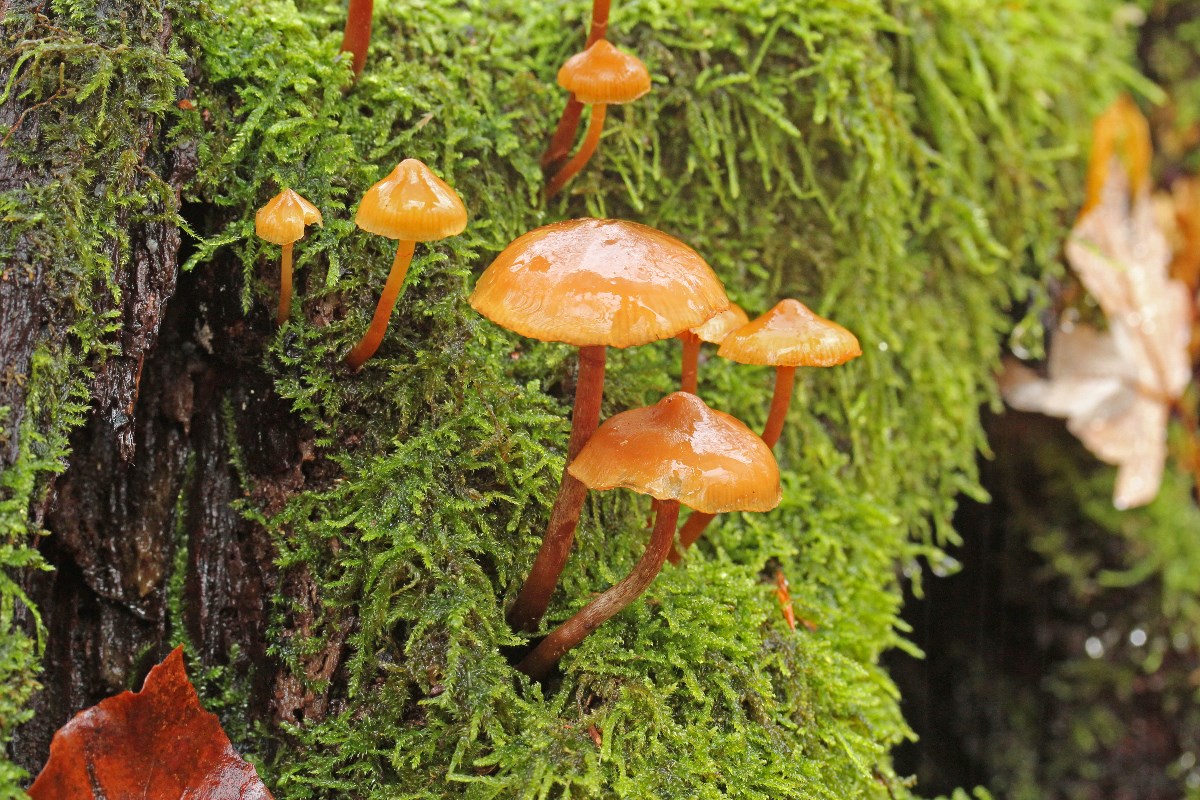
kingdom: Fungi
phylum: Basidiomycota
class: Agaricomycetes
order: Agaricales
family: Hymenogastraceae
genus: Galerina
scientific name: Galerina marginata
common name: randbæltet hjelmhat
